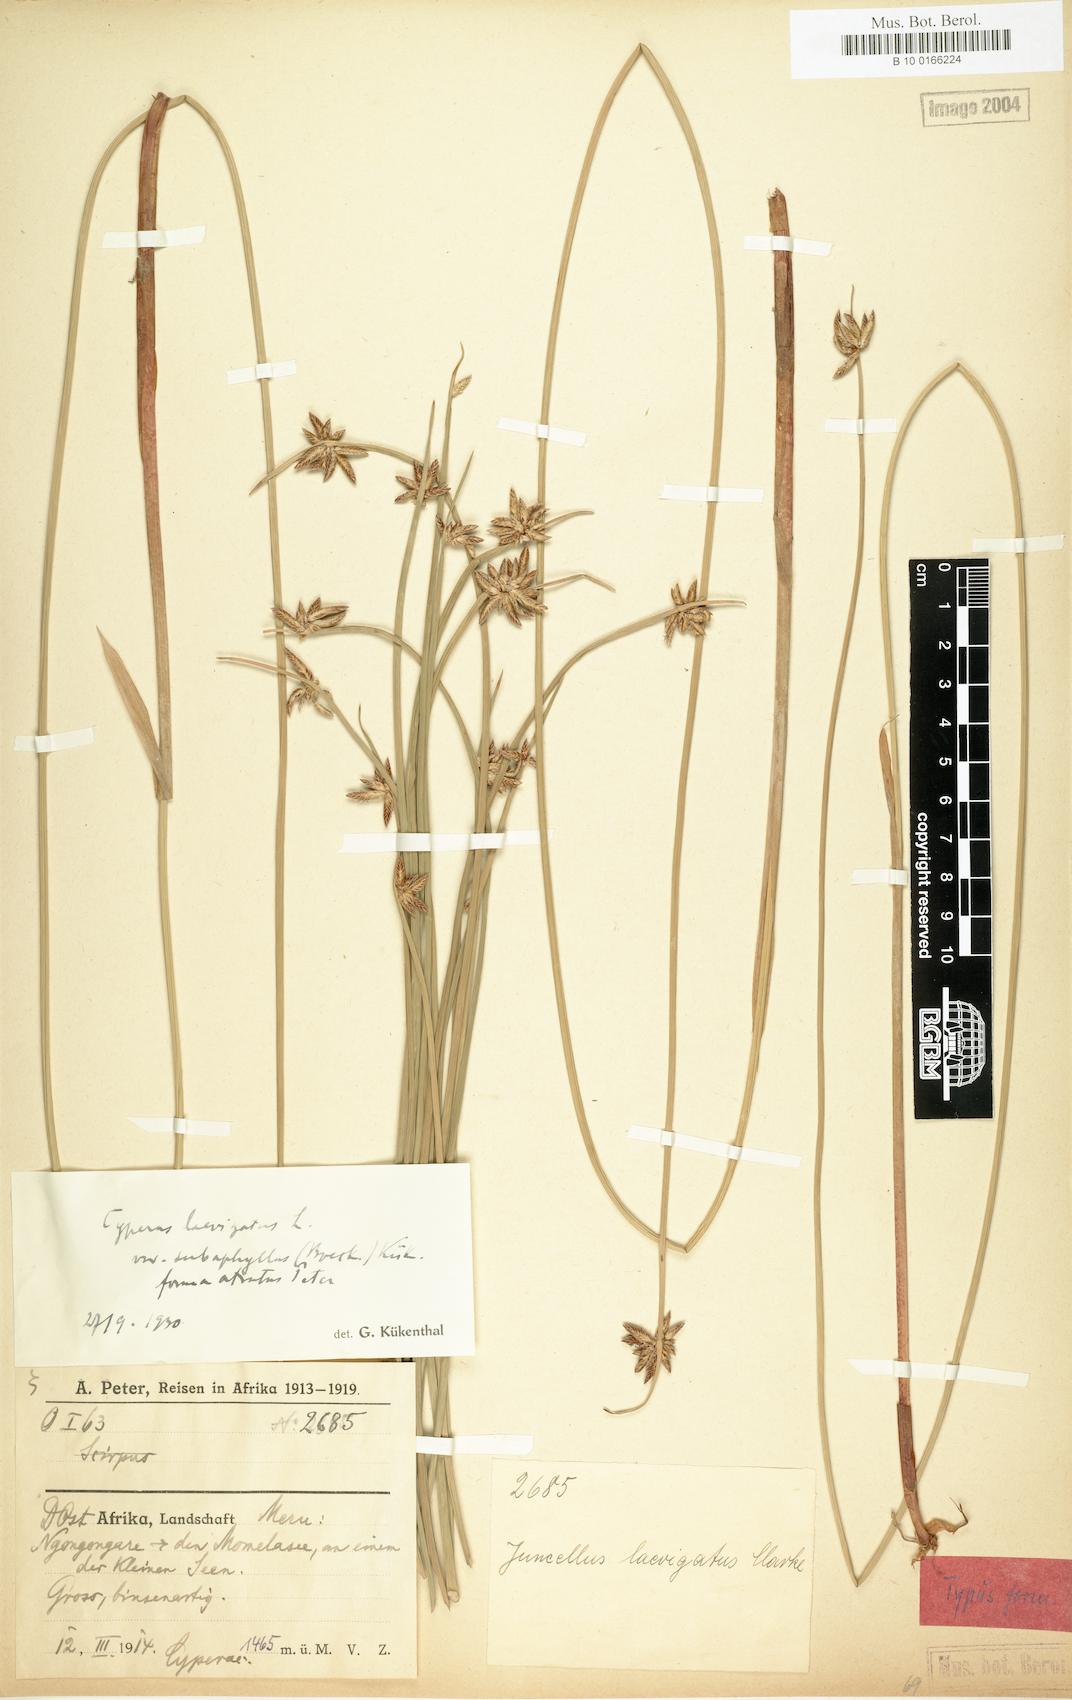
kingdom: Plantae
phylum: Tracheophyta
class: Liliopsida
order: Poales
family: Cyperaceae
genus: Cyperus
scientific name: Cyperus laevigatus
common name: Smooth flat sedge
